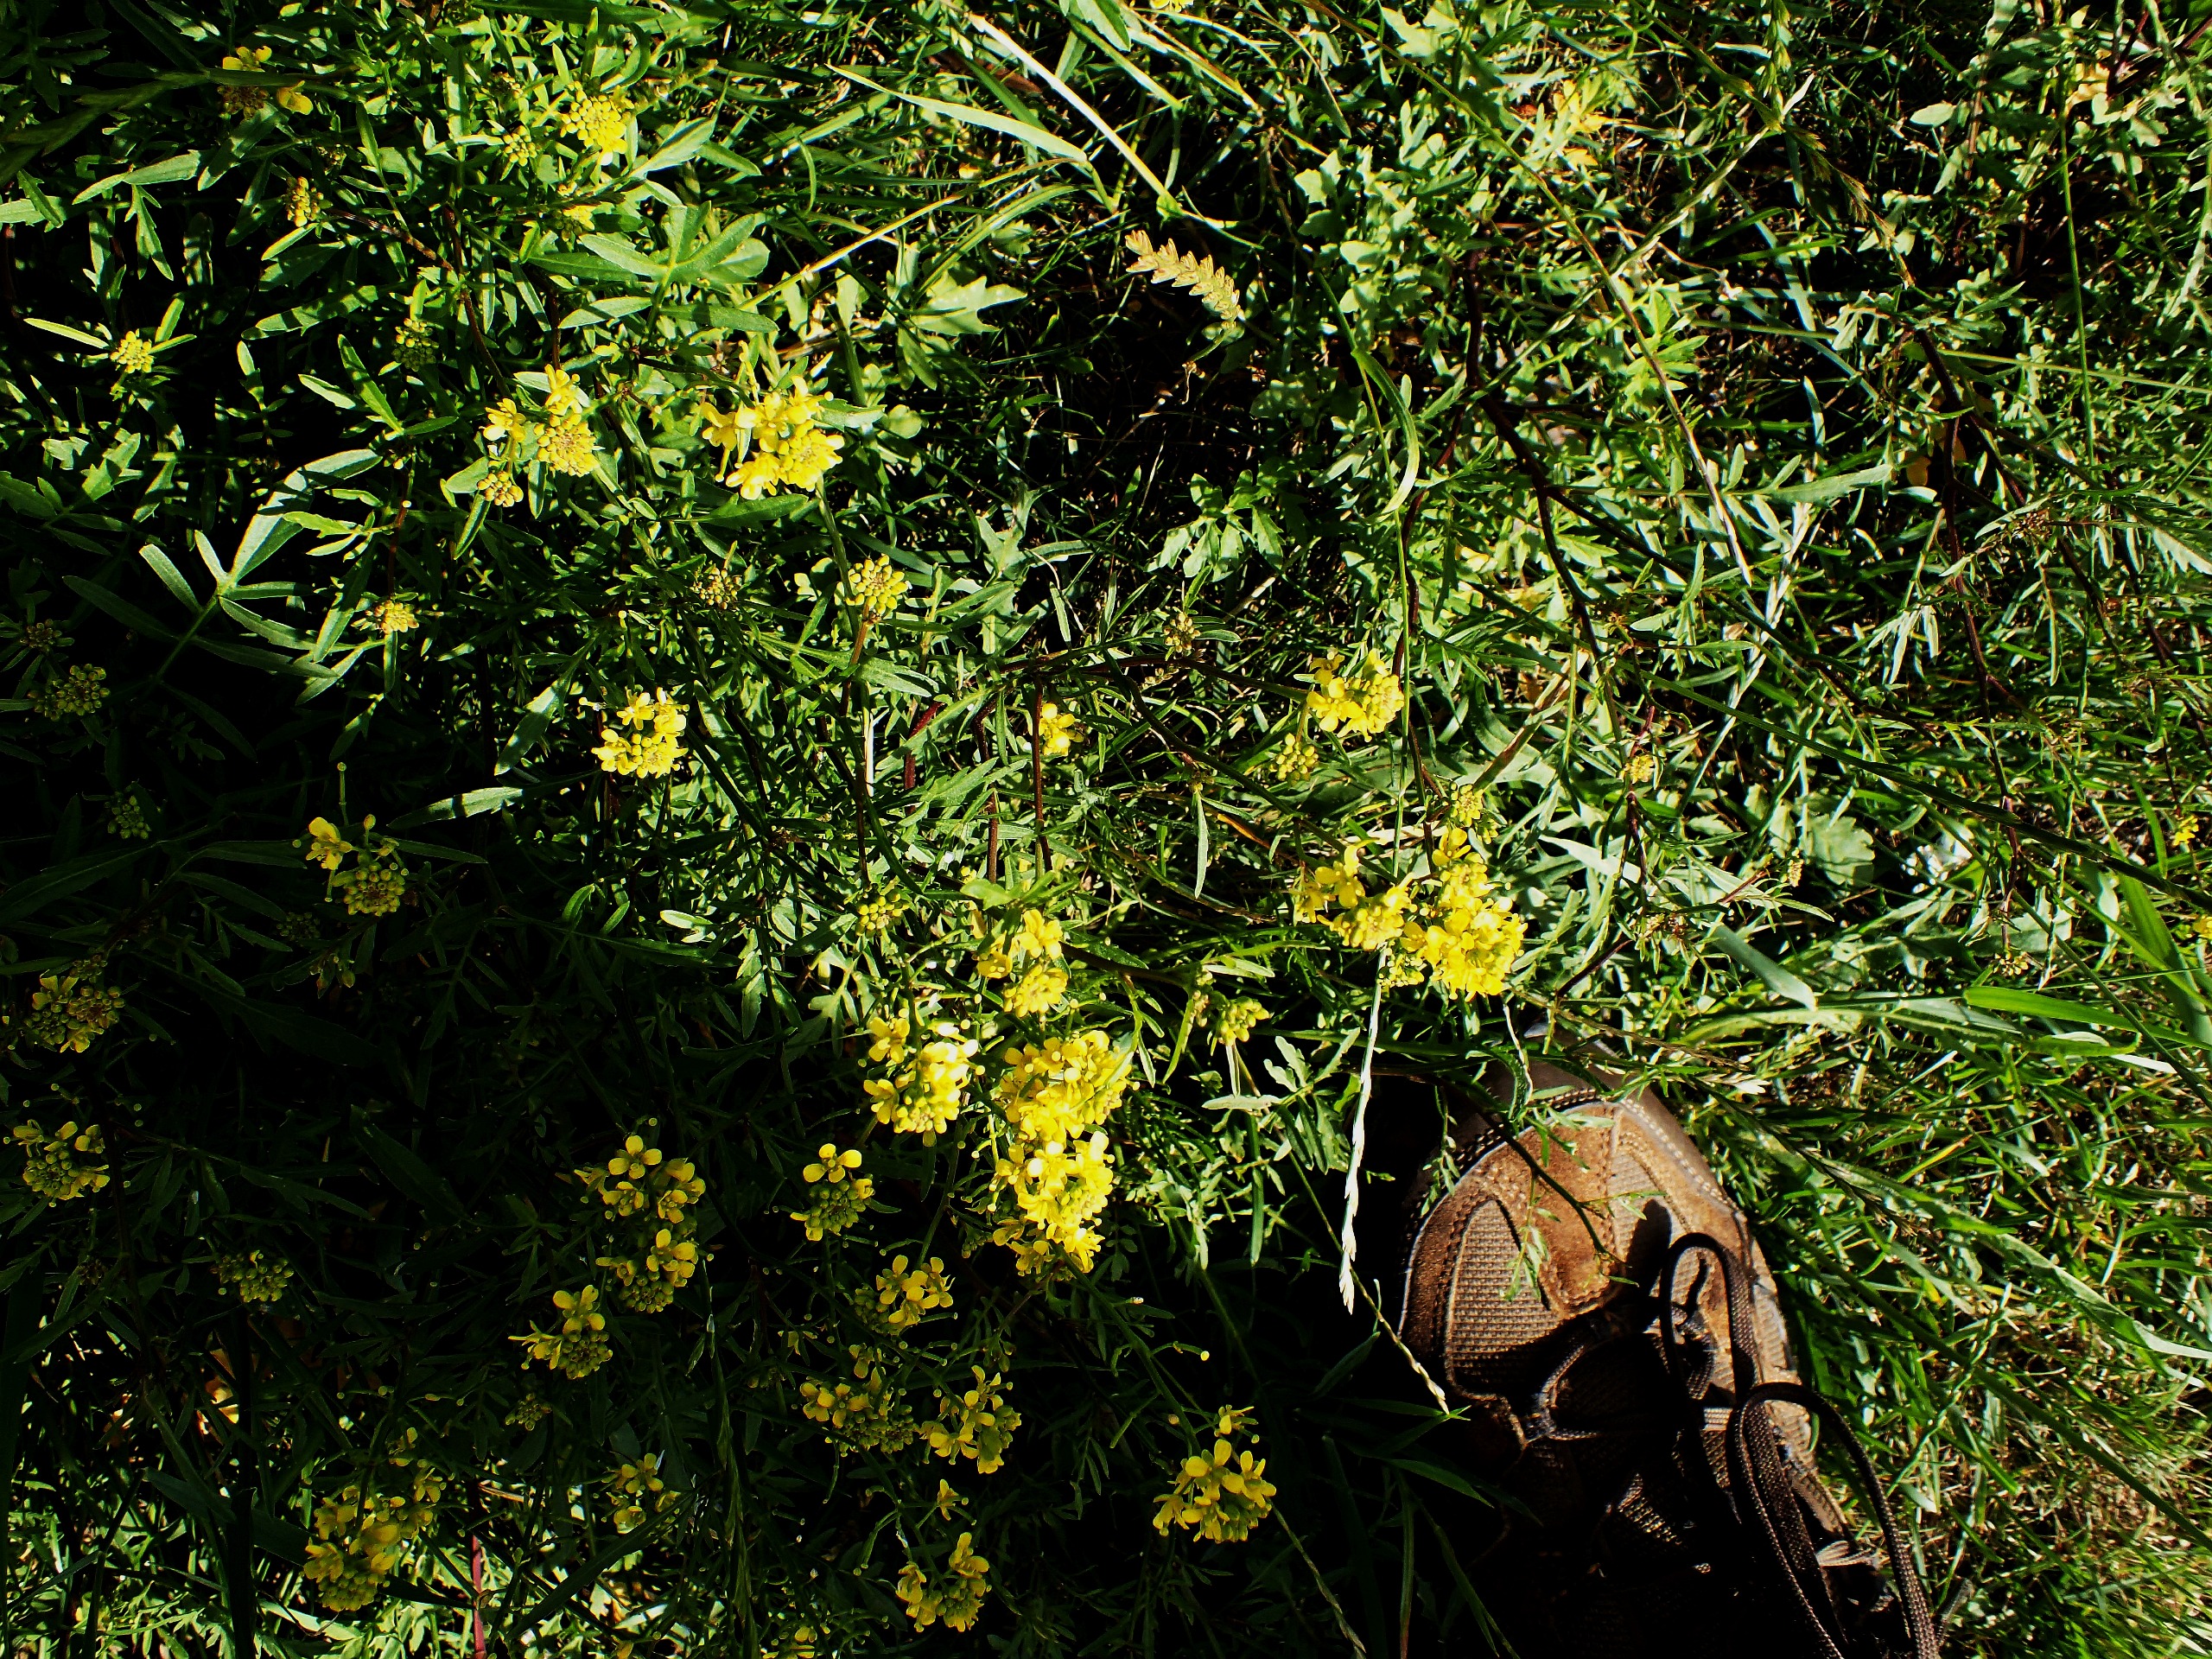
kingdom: Plantae
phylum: Tracheophyta
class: Magnoliopsida
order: Brassicales
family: Brassicaceae
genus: Rorippa
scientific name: Rorippa sylvestris
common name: Vej-guldkarse
